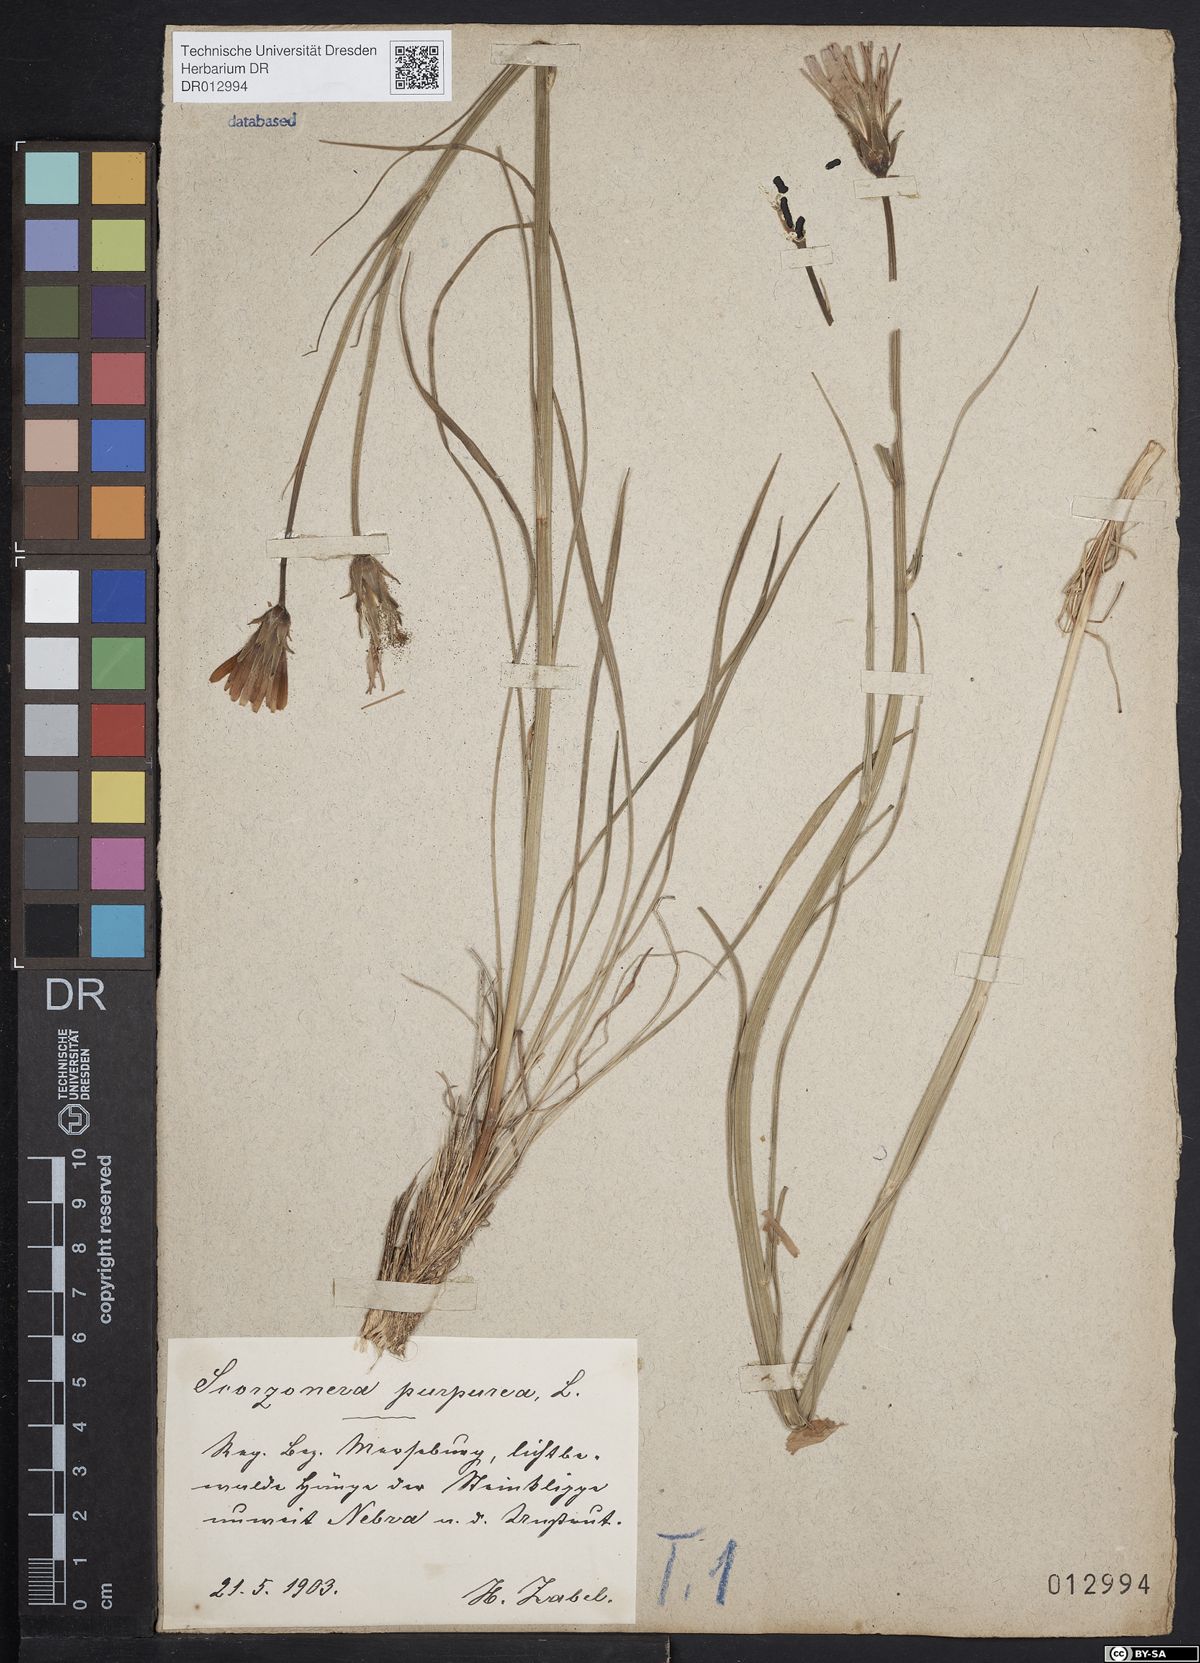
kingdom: Plantae
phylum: Tracheophyta
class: Magnoliopsida
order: Asterales
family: Asteraceae
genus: Scorzonera
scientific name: Scorzonera purpurea
